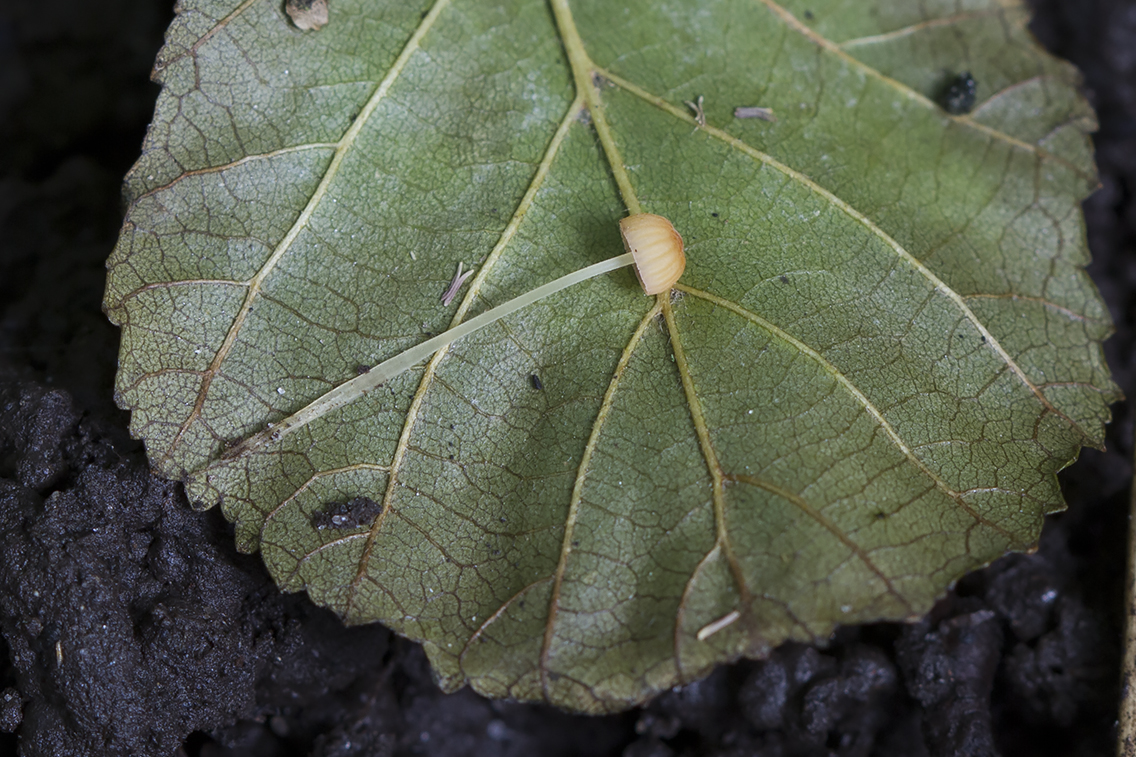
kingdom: Fungi
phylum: Basidiomycota
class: Agaricomycetes
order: Agaricales
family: Mycenaceae
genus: Mycena
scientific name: Mycena acicula
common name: orange huesvamp
